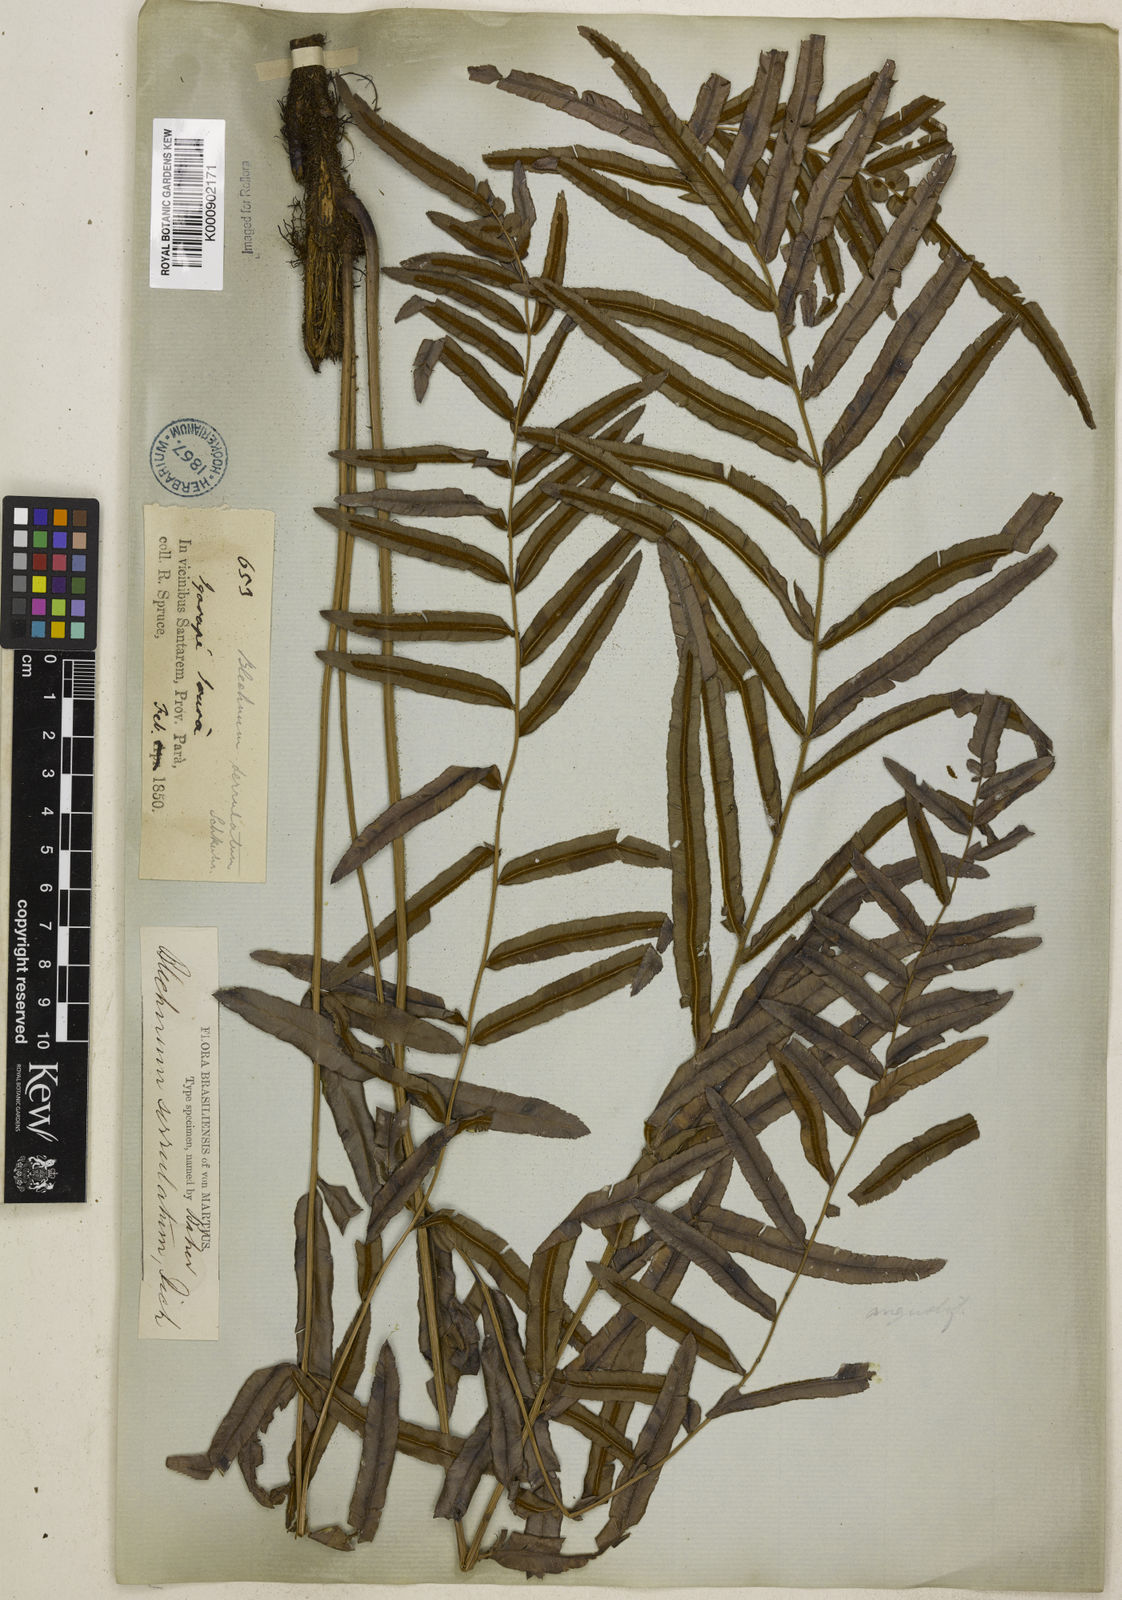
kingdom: Plantae
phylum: Tracheophyta
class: Polypodiopsida
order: Polypodiales
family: Blechnaceae
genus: Telmatoblechnum
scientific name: Telmatoblechnum serrulatum
